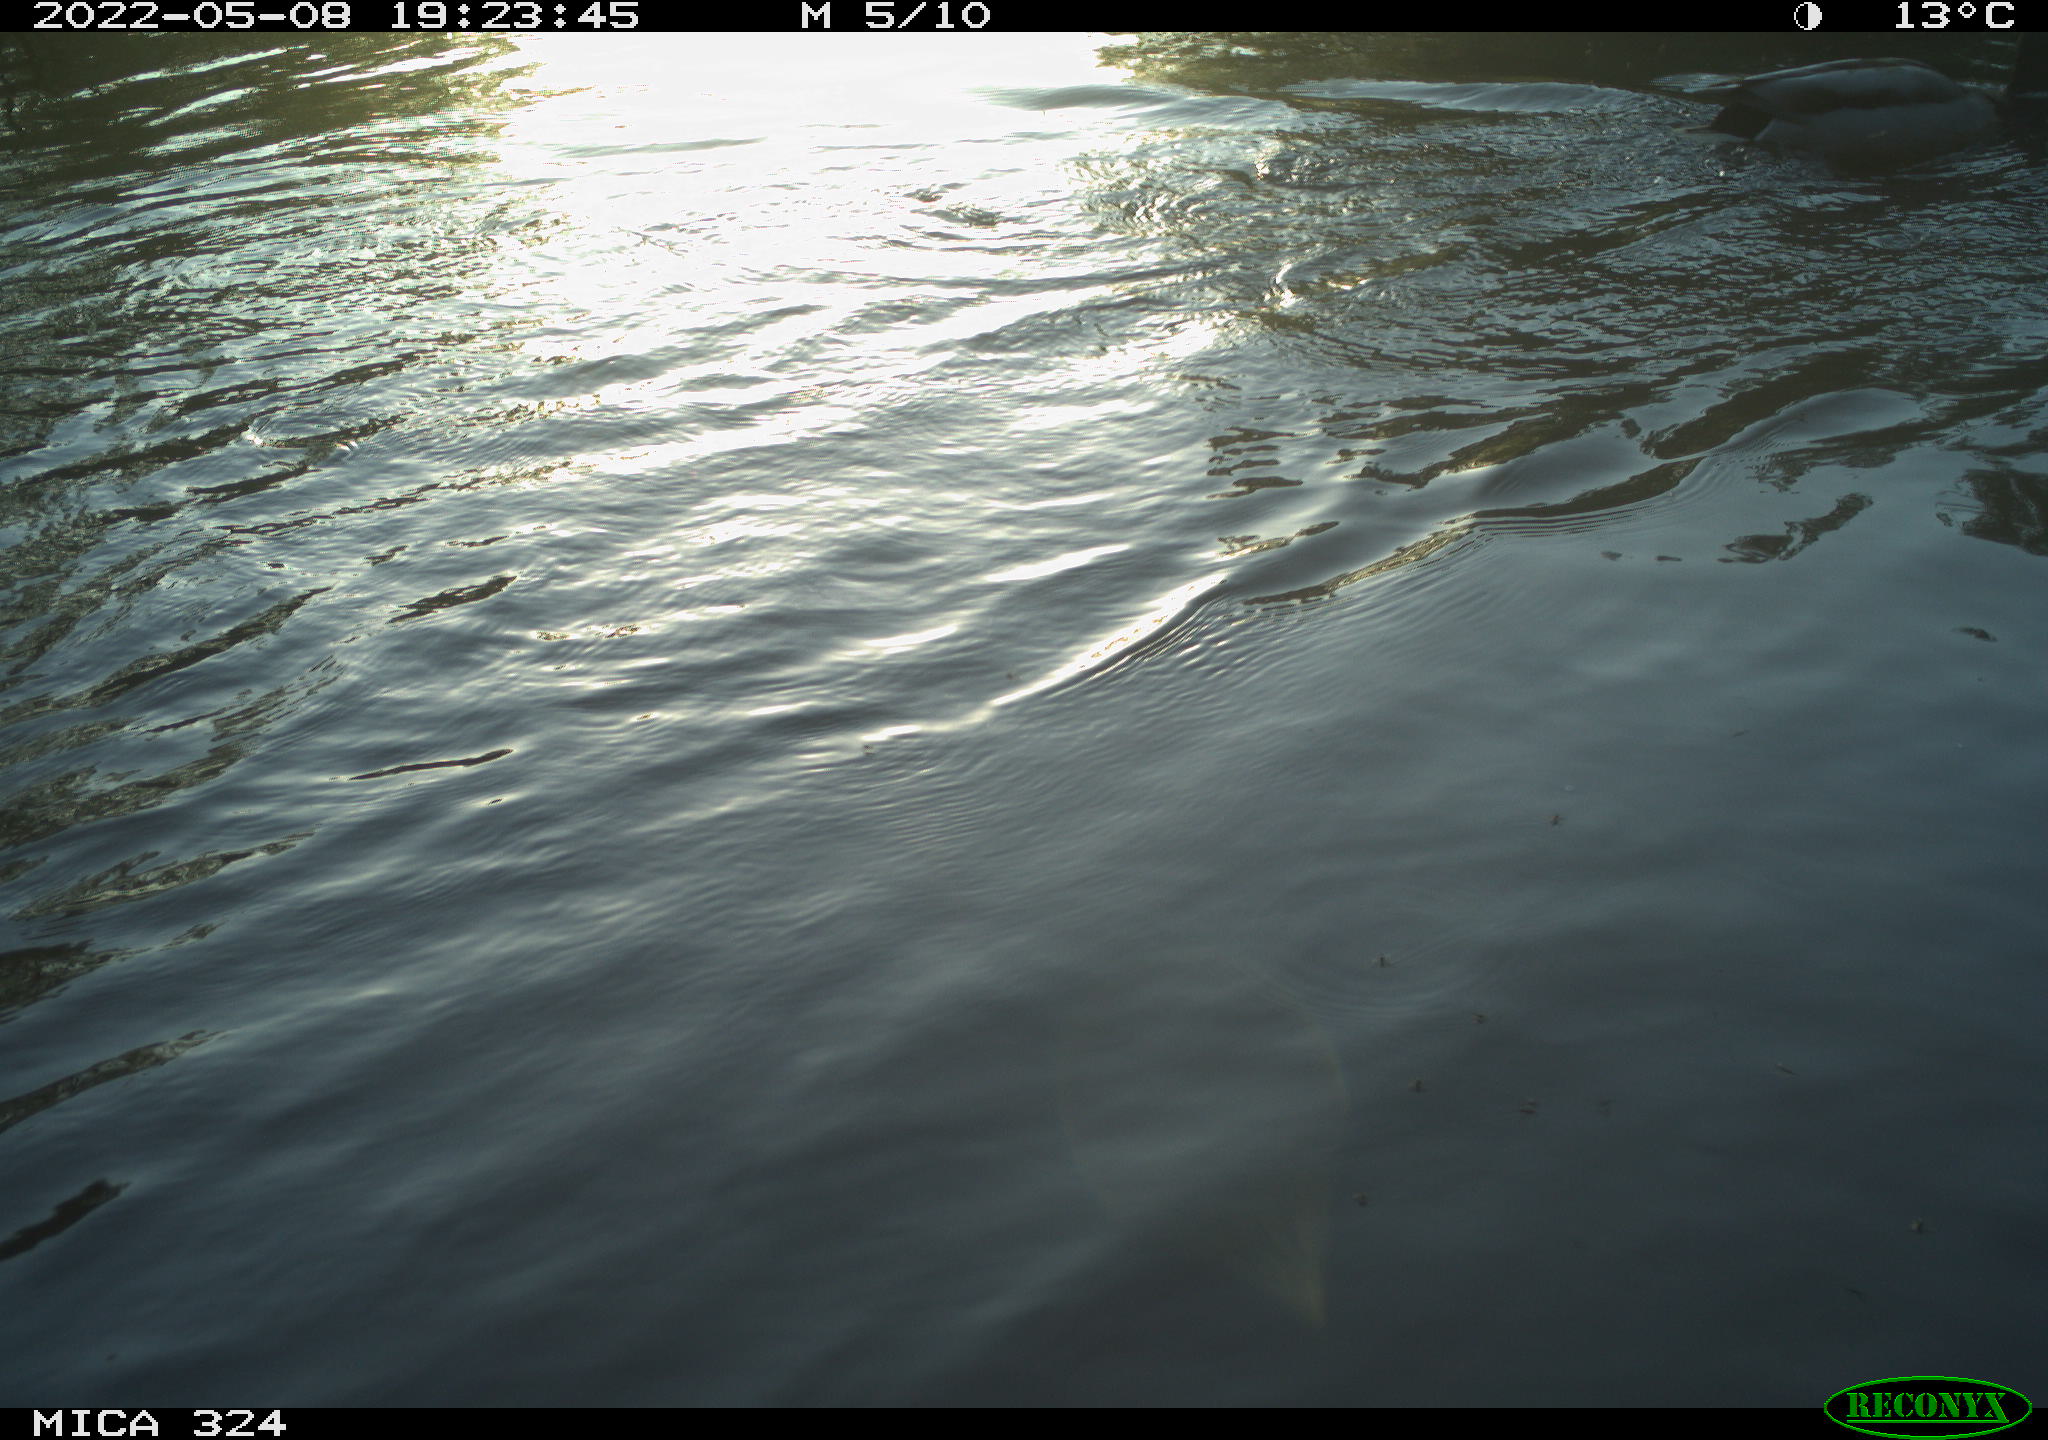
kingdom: Animalia
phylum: Chordata
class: Aves
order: Anseriformes
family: Anatidae
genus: Anas
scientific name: Anas platyrhynchos
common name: Mallard
